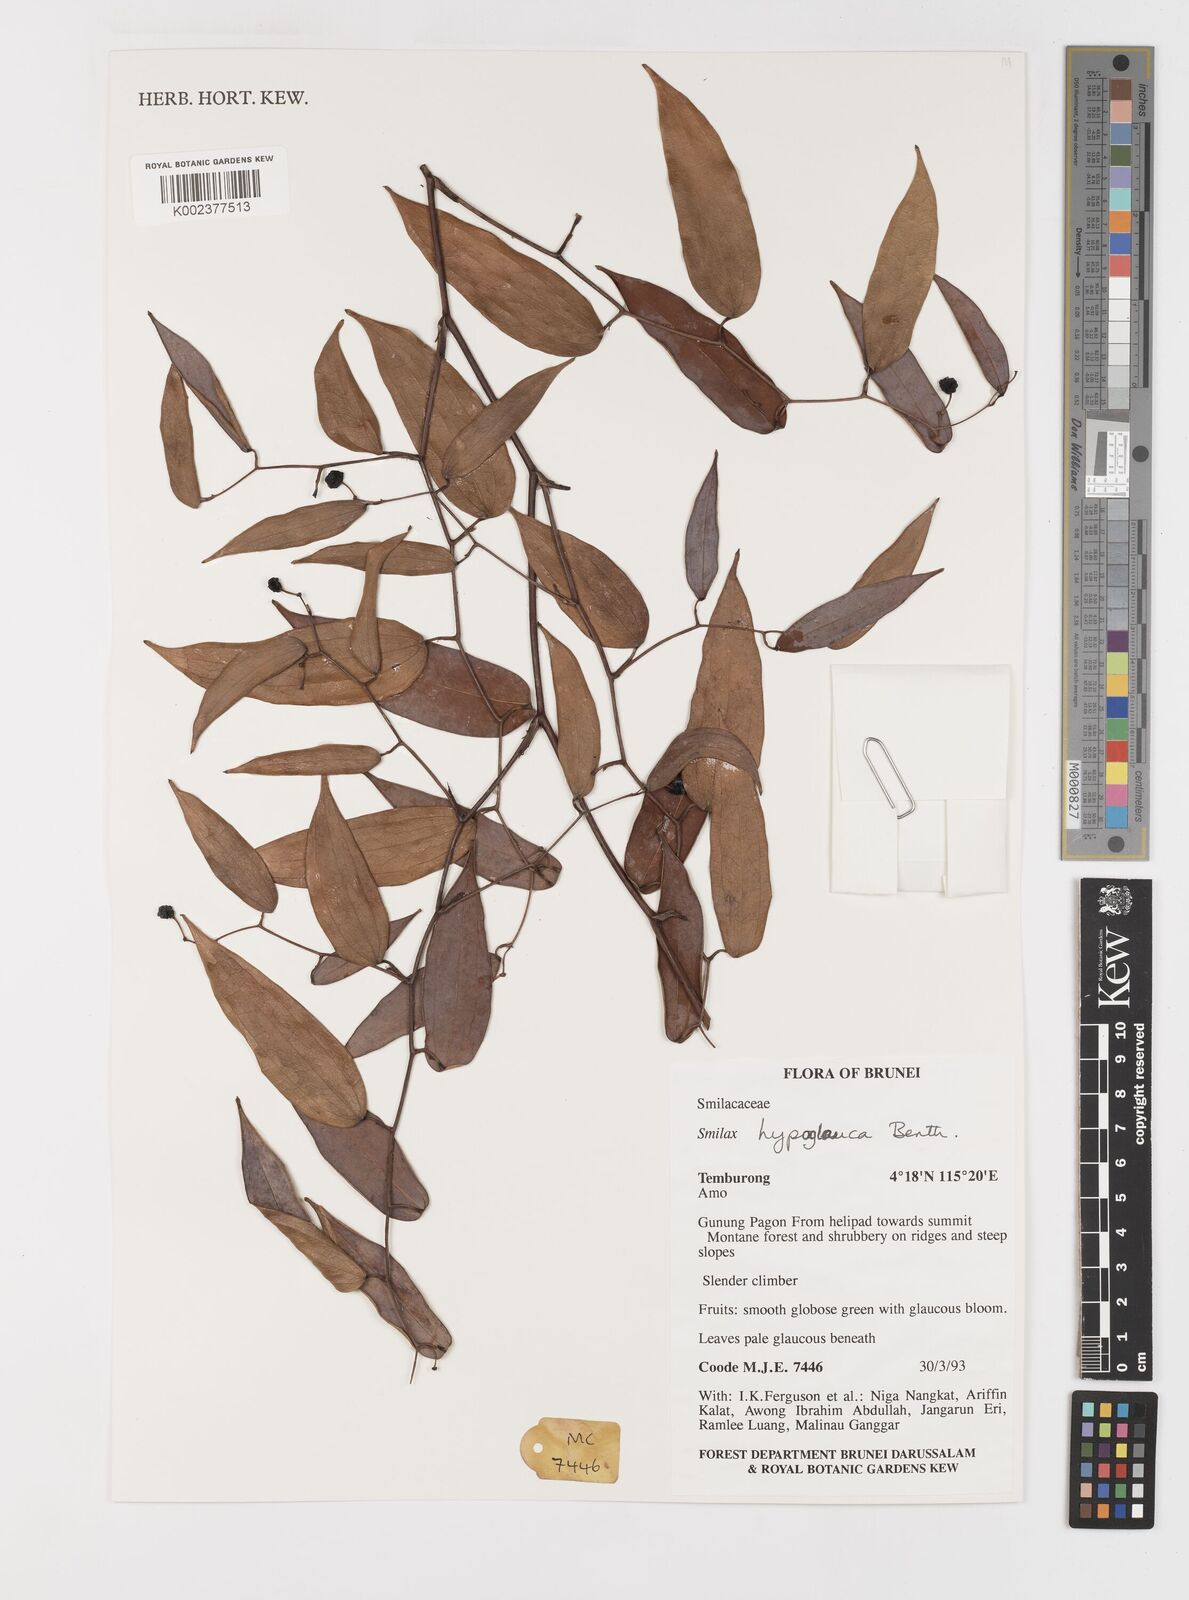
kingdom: Plantae
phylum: Tracheophyta
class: Liliopsida
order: Liliales
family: Smilacaceae
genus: Smilax
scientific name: Smilax hypoglauca
